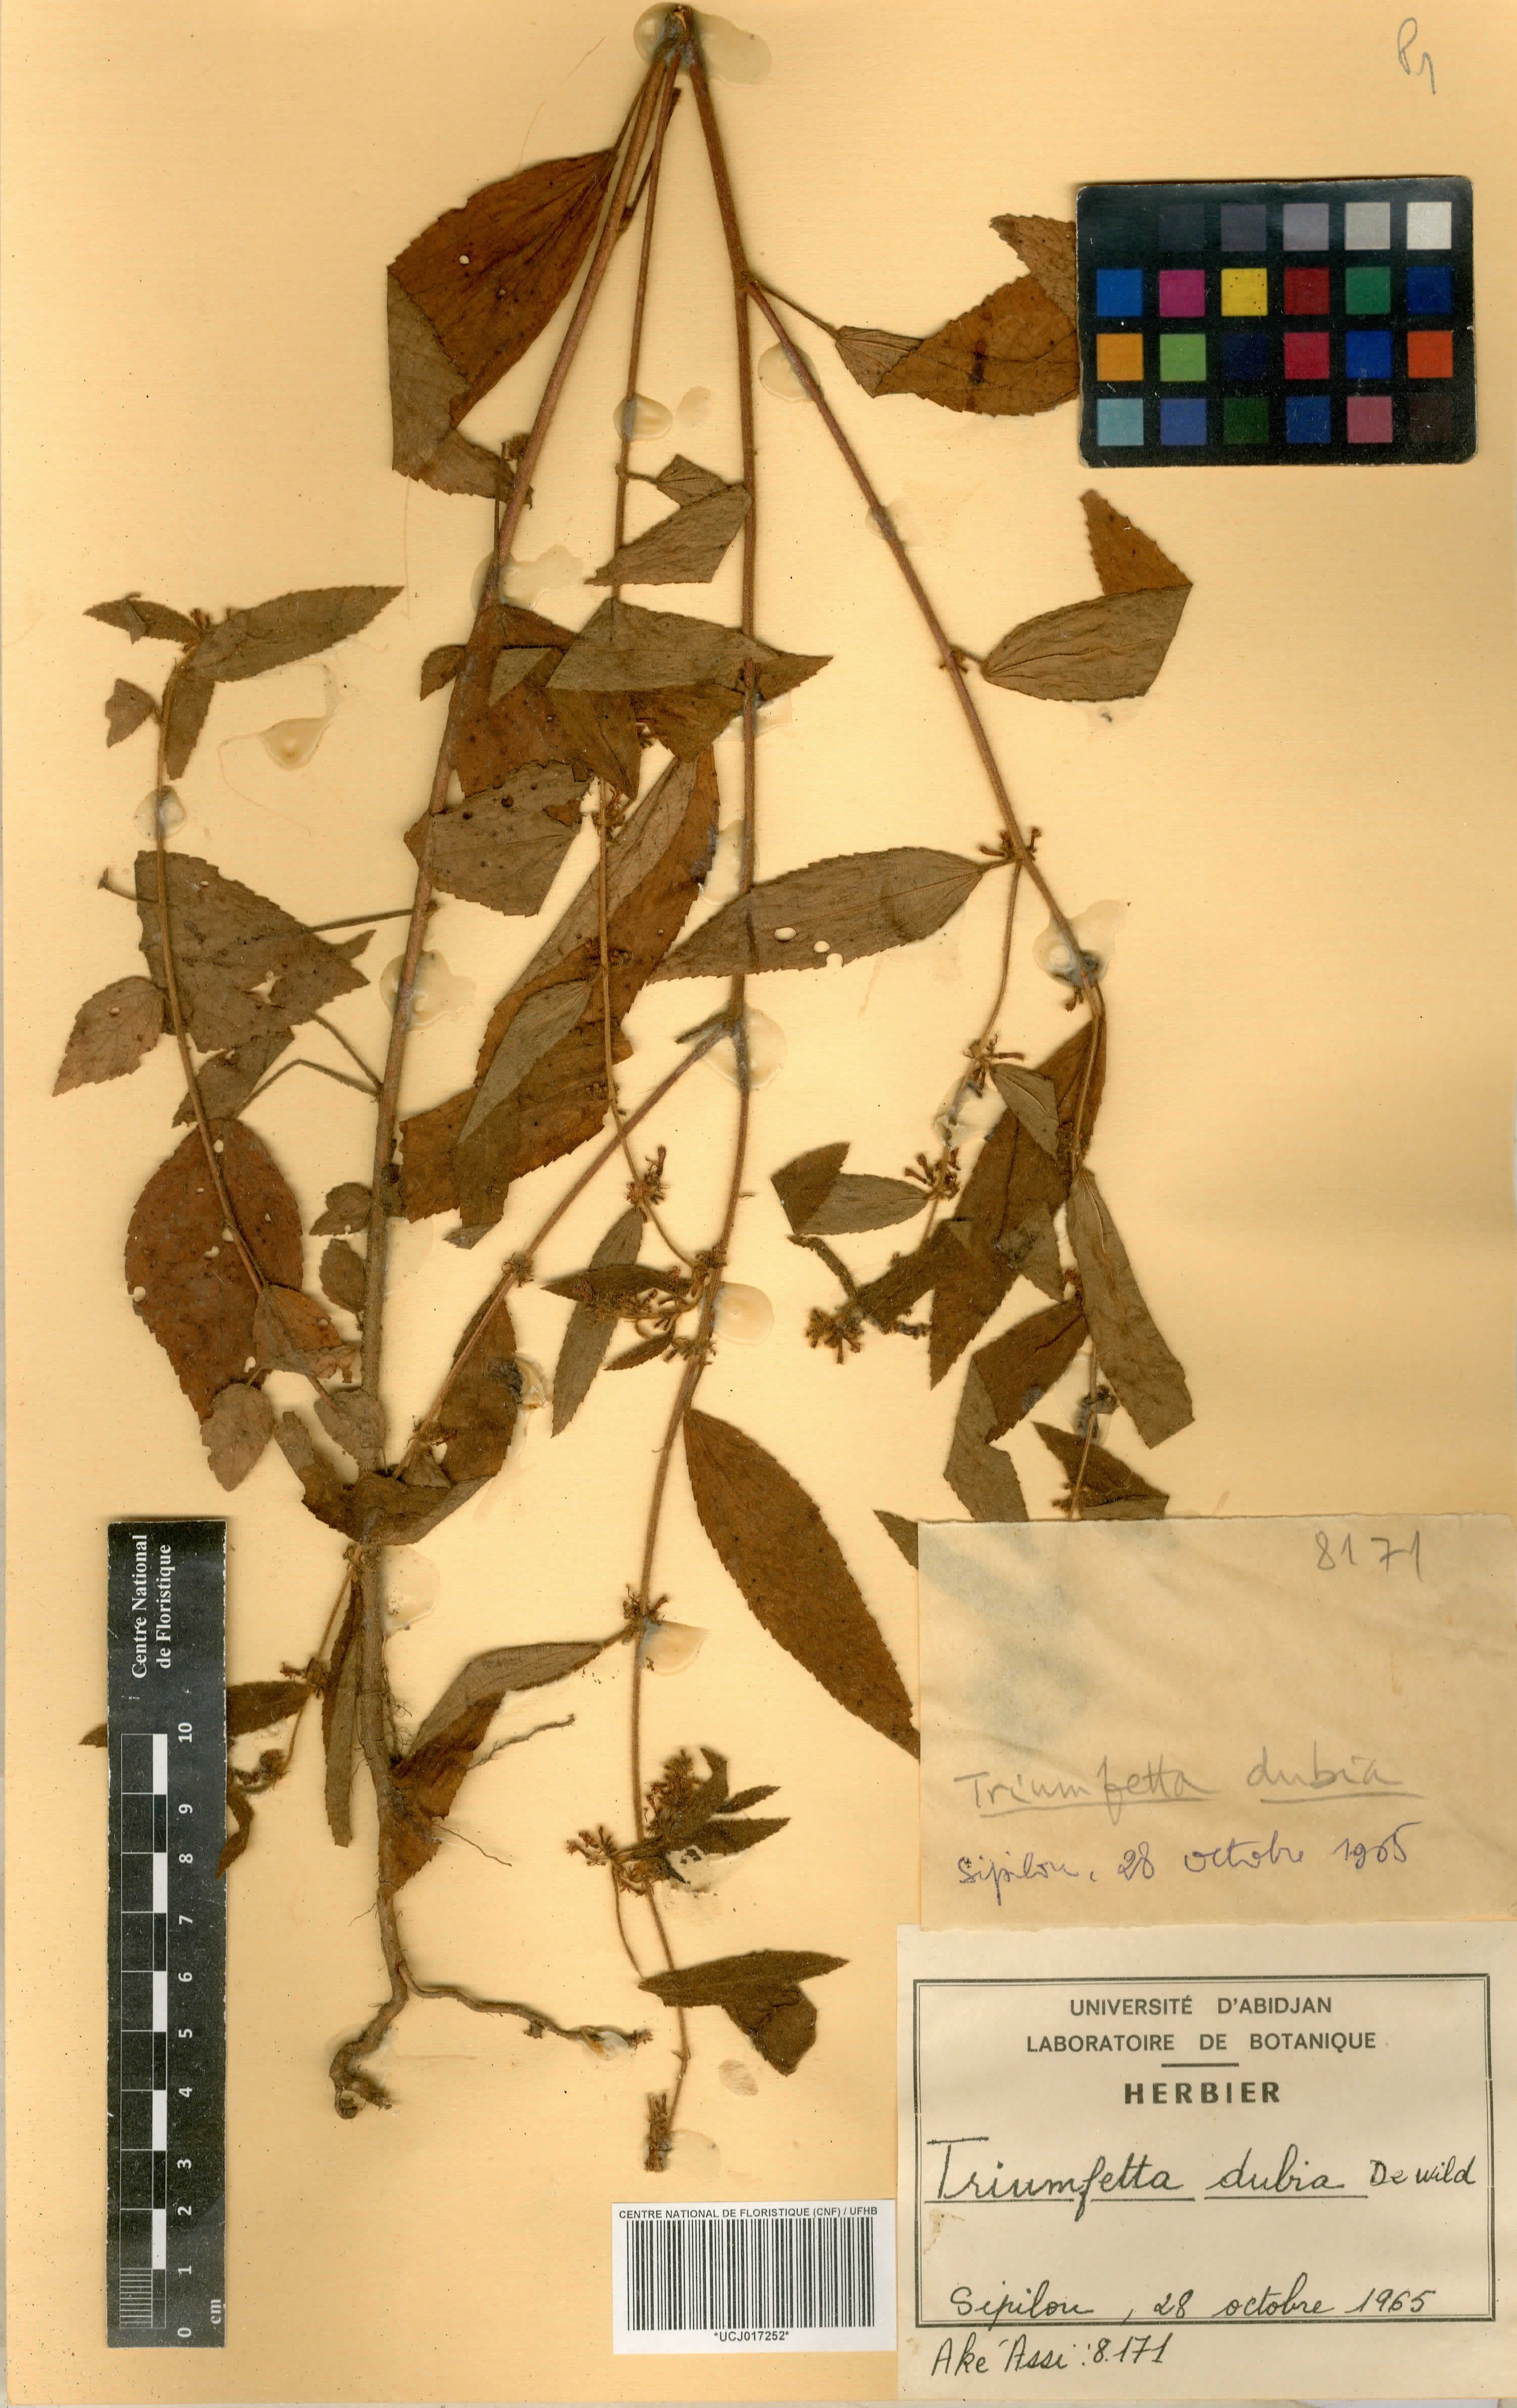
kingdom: Plantae
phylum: Tracheophyta
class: Magnoliopsida
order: Malvales
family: Malvaceae
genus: Triumfetta
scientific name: Triumfetta setulosa
